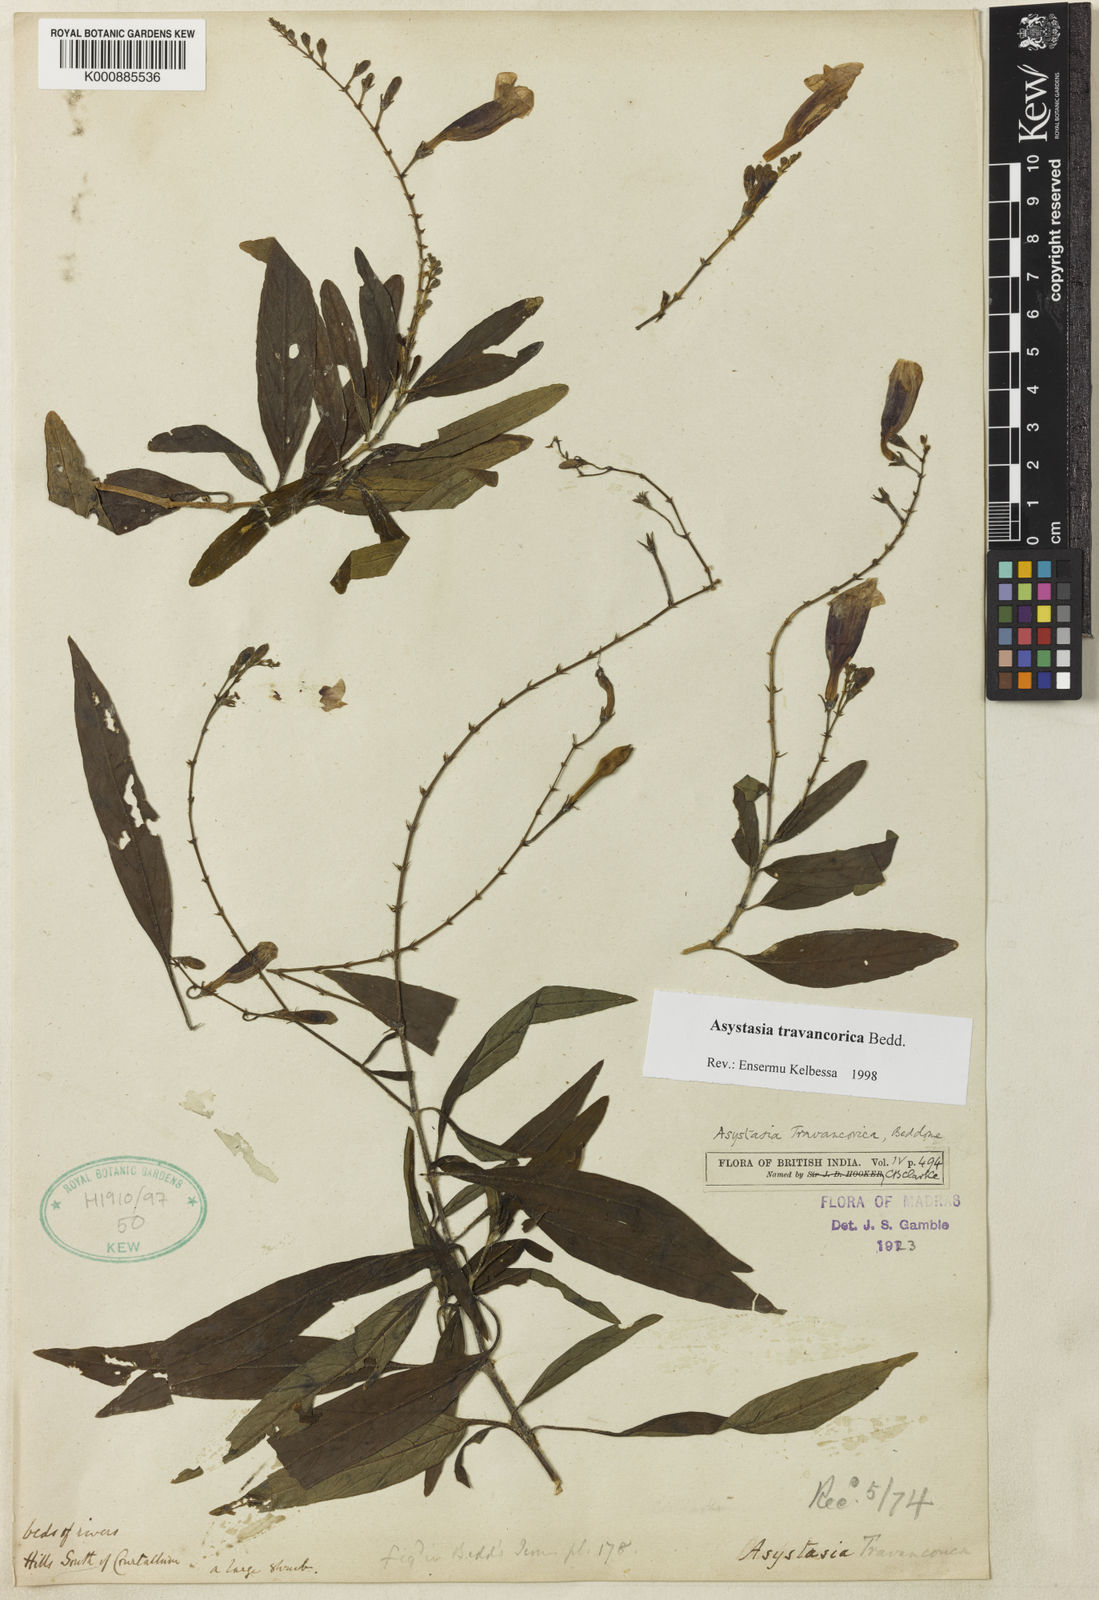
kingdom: Plantae
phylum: Tracheophyta
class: Magnoliopsida
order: Lamiales
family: Acanthaceae
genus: Asystasia
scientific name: Asystasia travancorica
